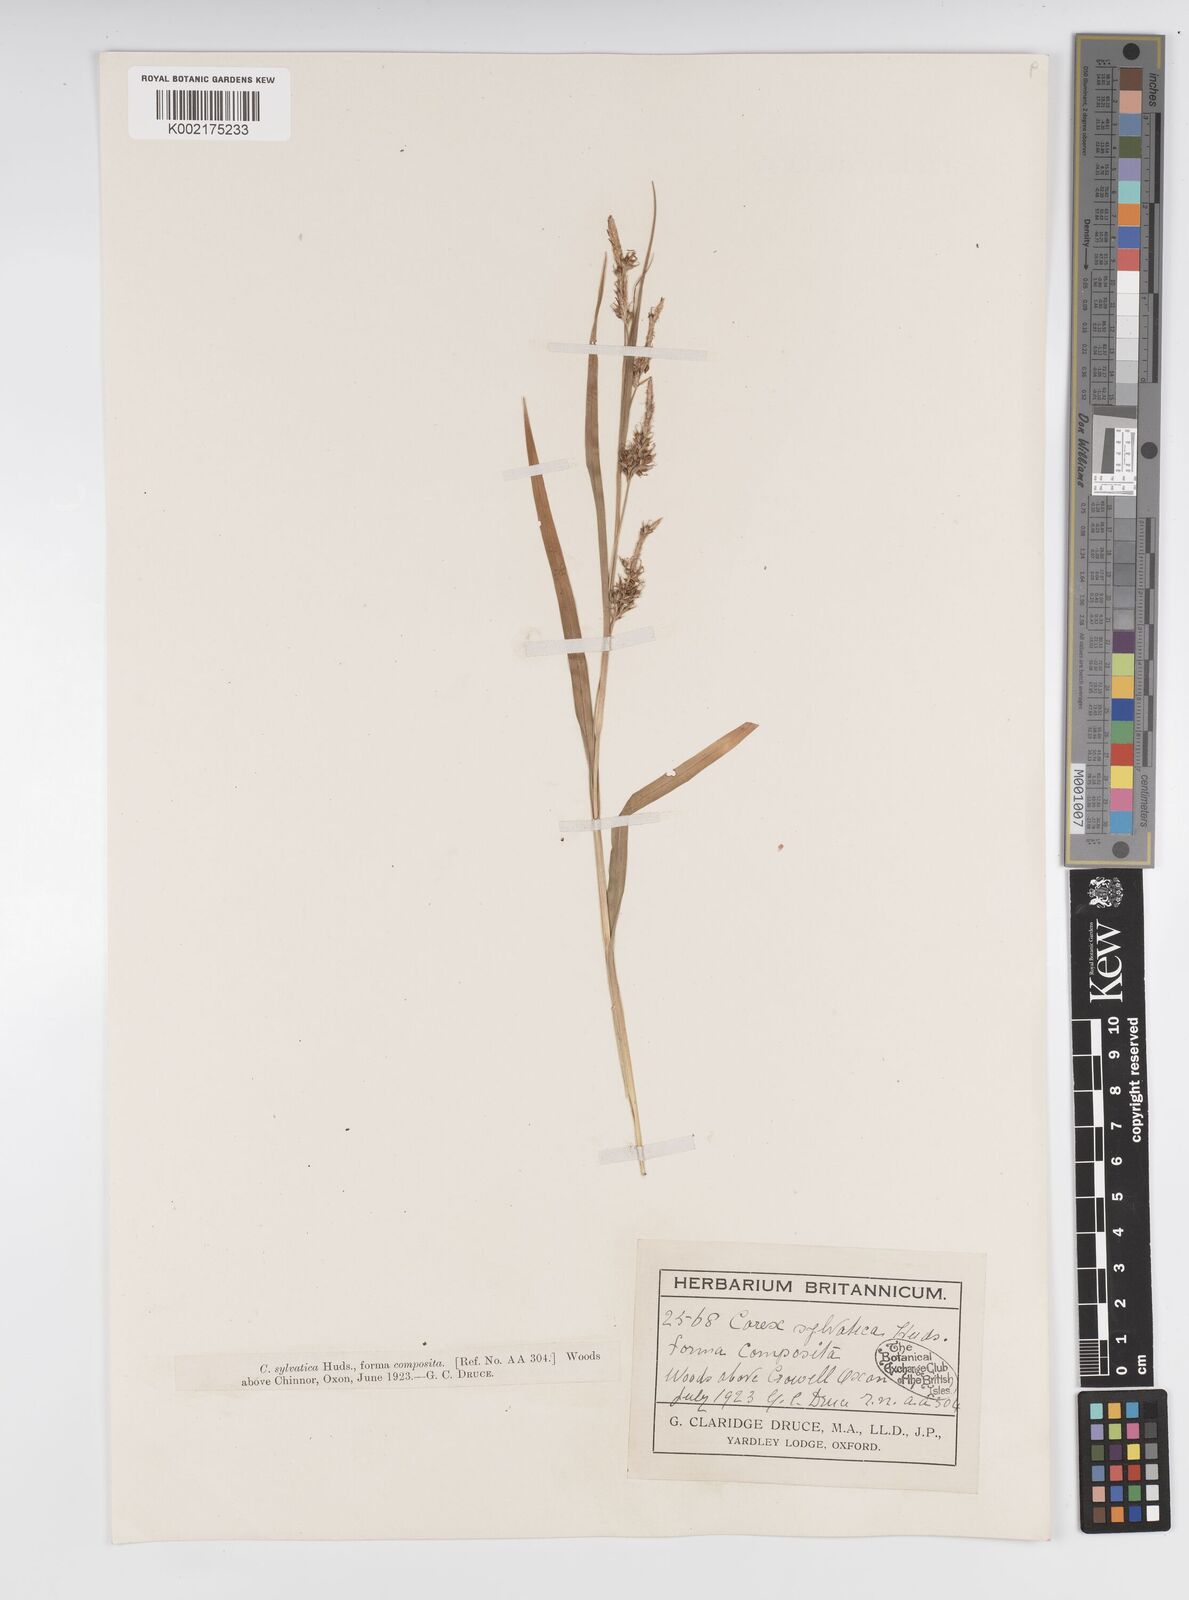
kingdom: Plantae
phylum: Tracheophyta
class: Liliopsida
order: Poales
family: Cyperaceae
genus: Carex
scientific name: Carex sylvatica
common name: Wood-sedge
